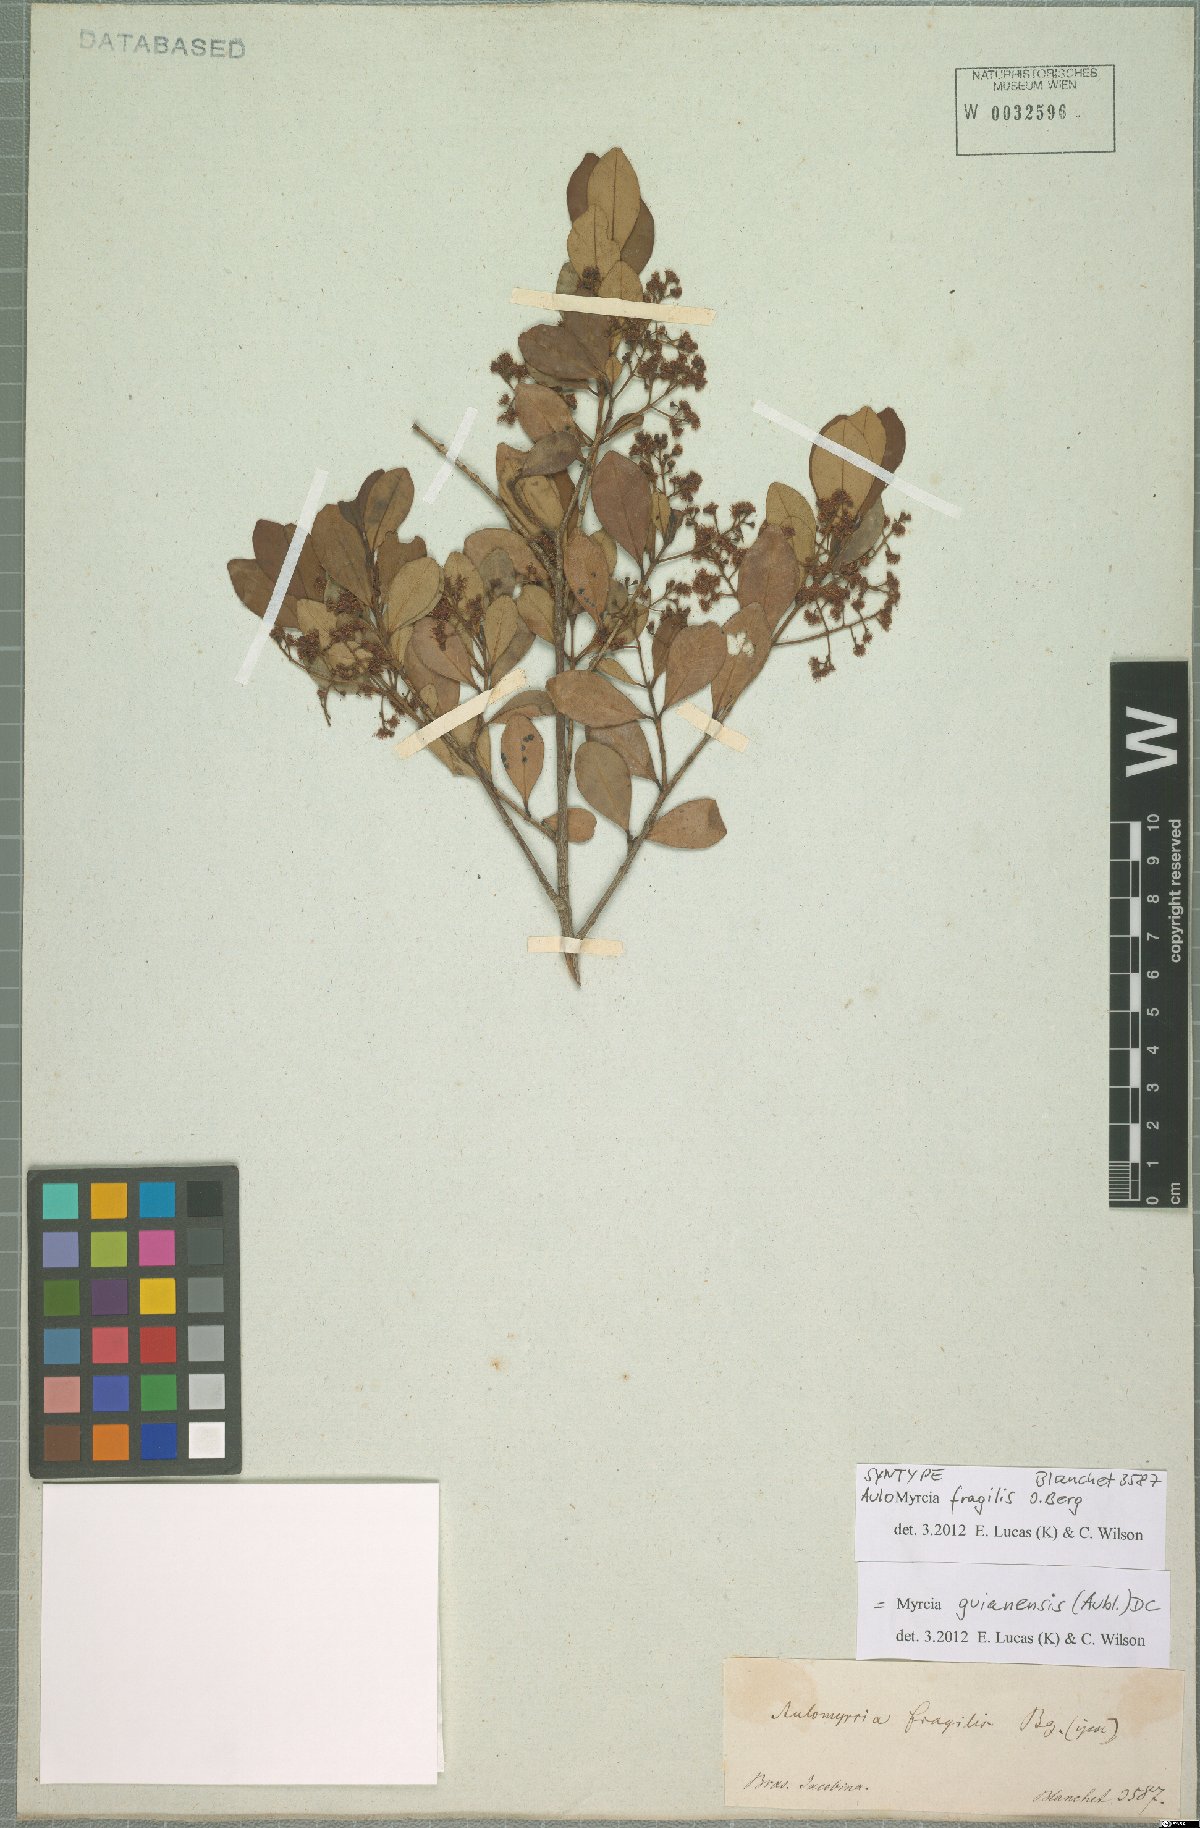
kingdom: Plantae
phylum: Tracheophyta
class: Magnoliopsida
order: Myrtales
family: Myrtaceae
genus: Myrcia
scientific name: Myrcia guianensis
